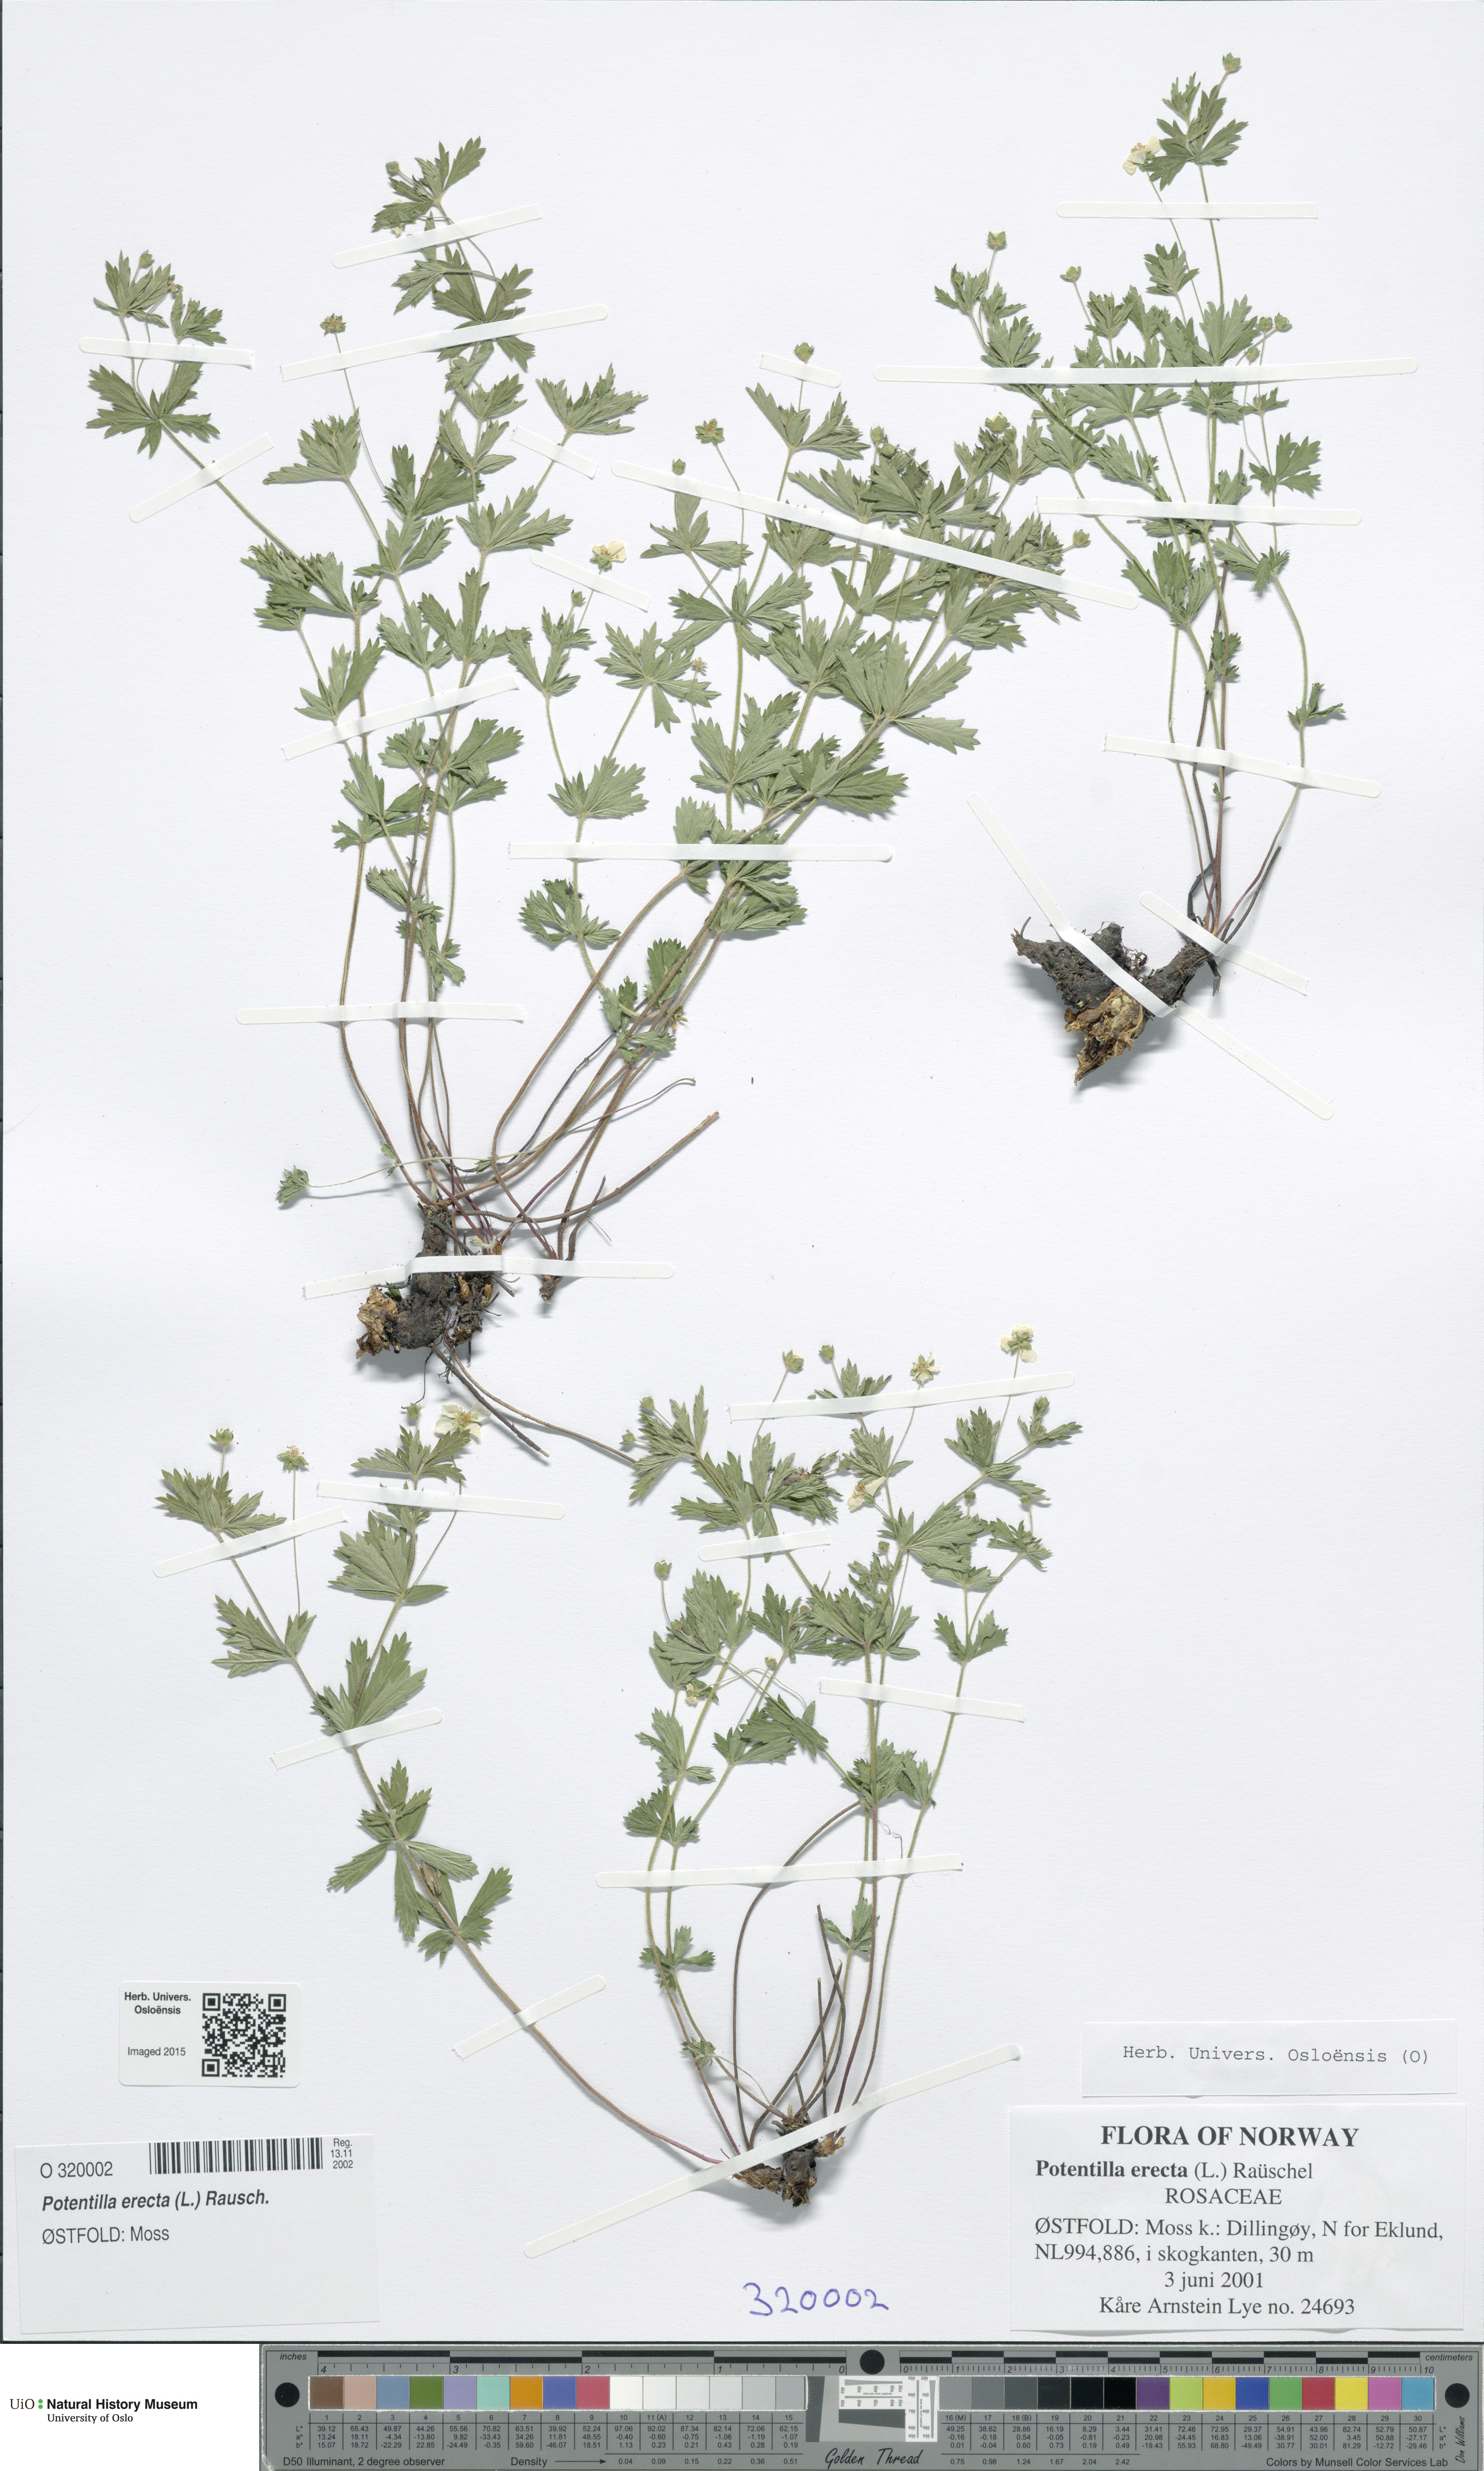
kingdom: Plantae
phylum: Tracheophyta
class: Magnoliopsida
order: Rosales
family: Rosaceae
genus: Potentilla
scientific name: Potentilla erecta
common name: Tormentil
